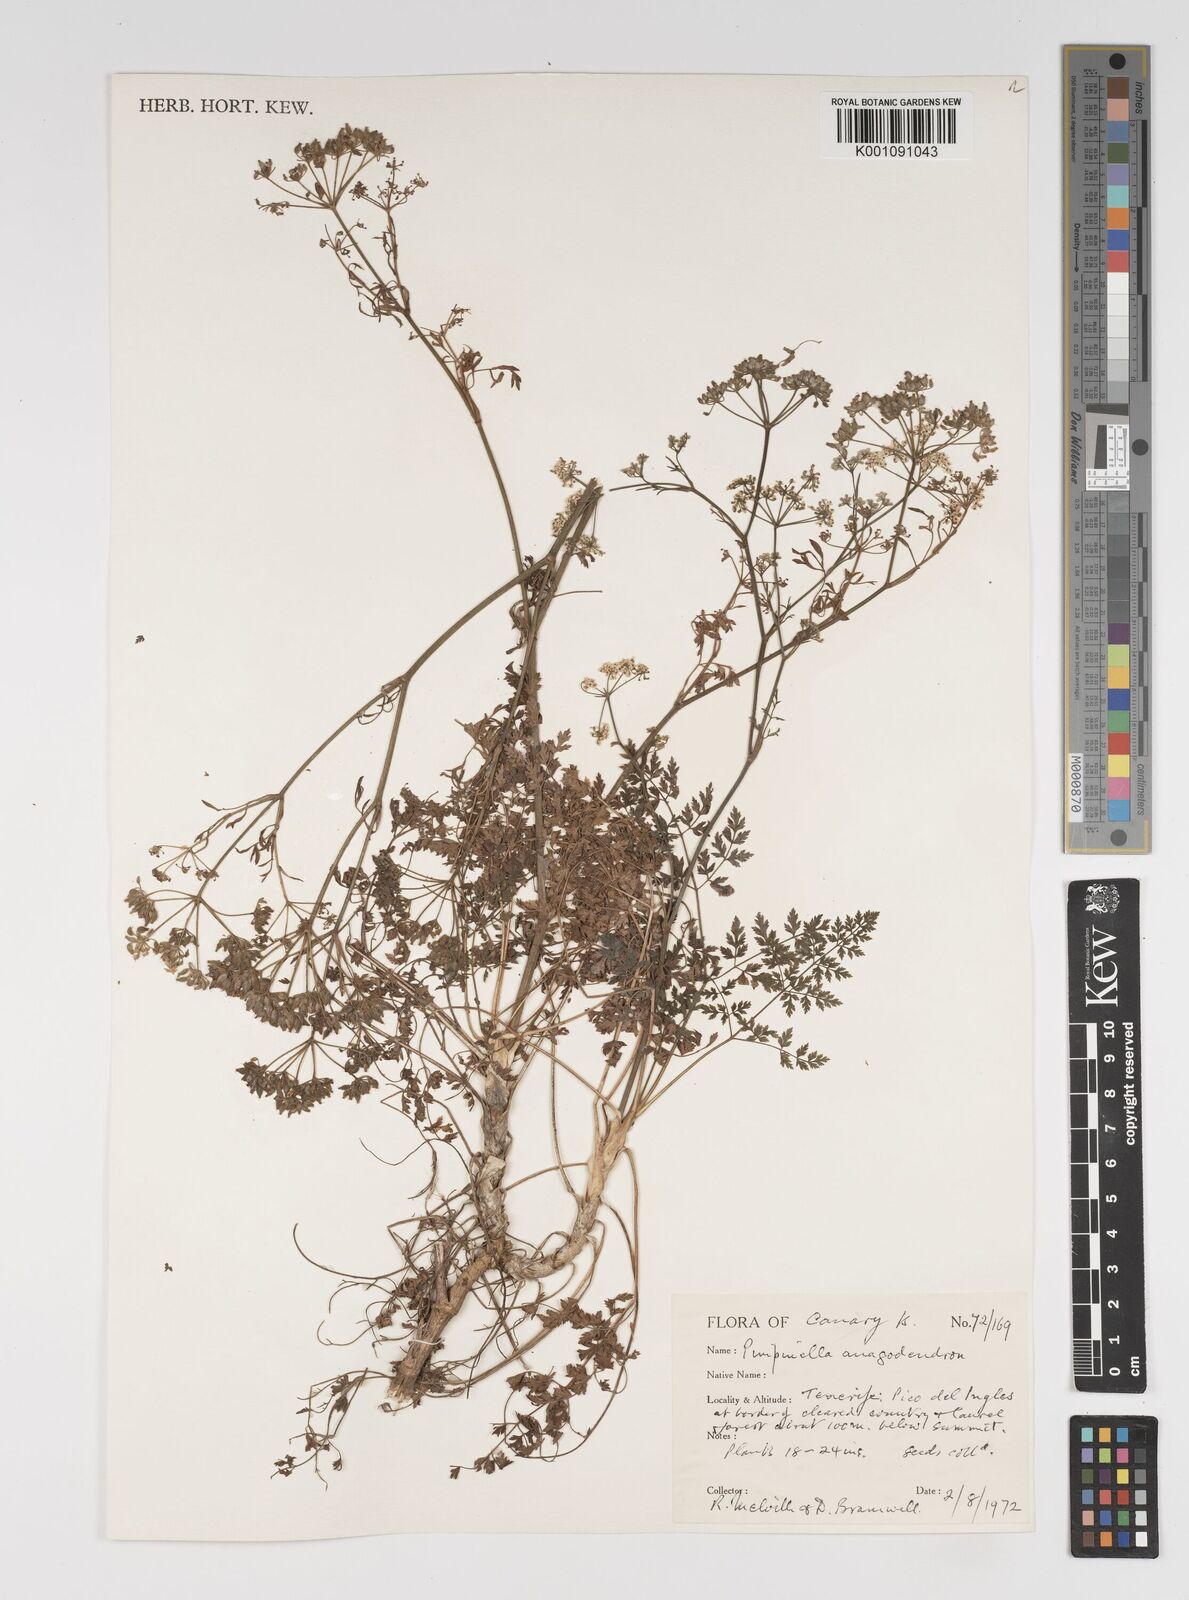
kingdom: Plantae
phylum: Tracheophyta
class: Magnoliopsida
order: Apiales
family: Apiaceae
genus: Pimpinella
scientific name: Pimpinella anagodendron
